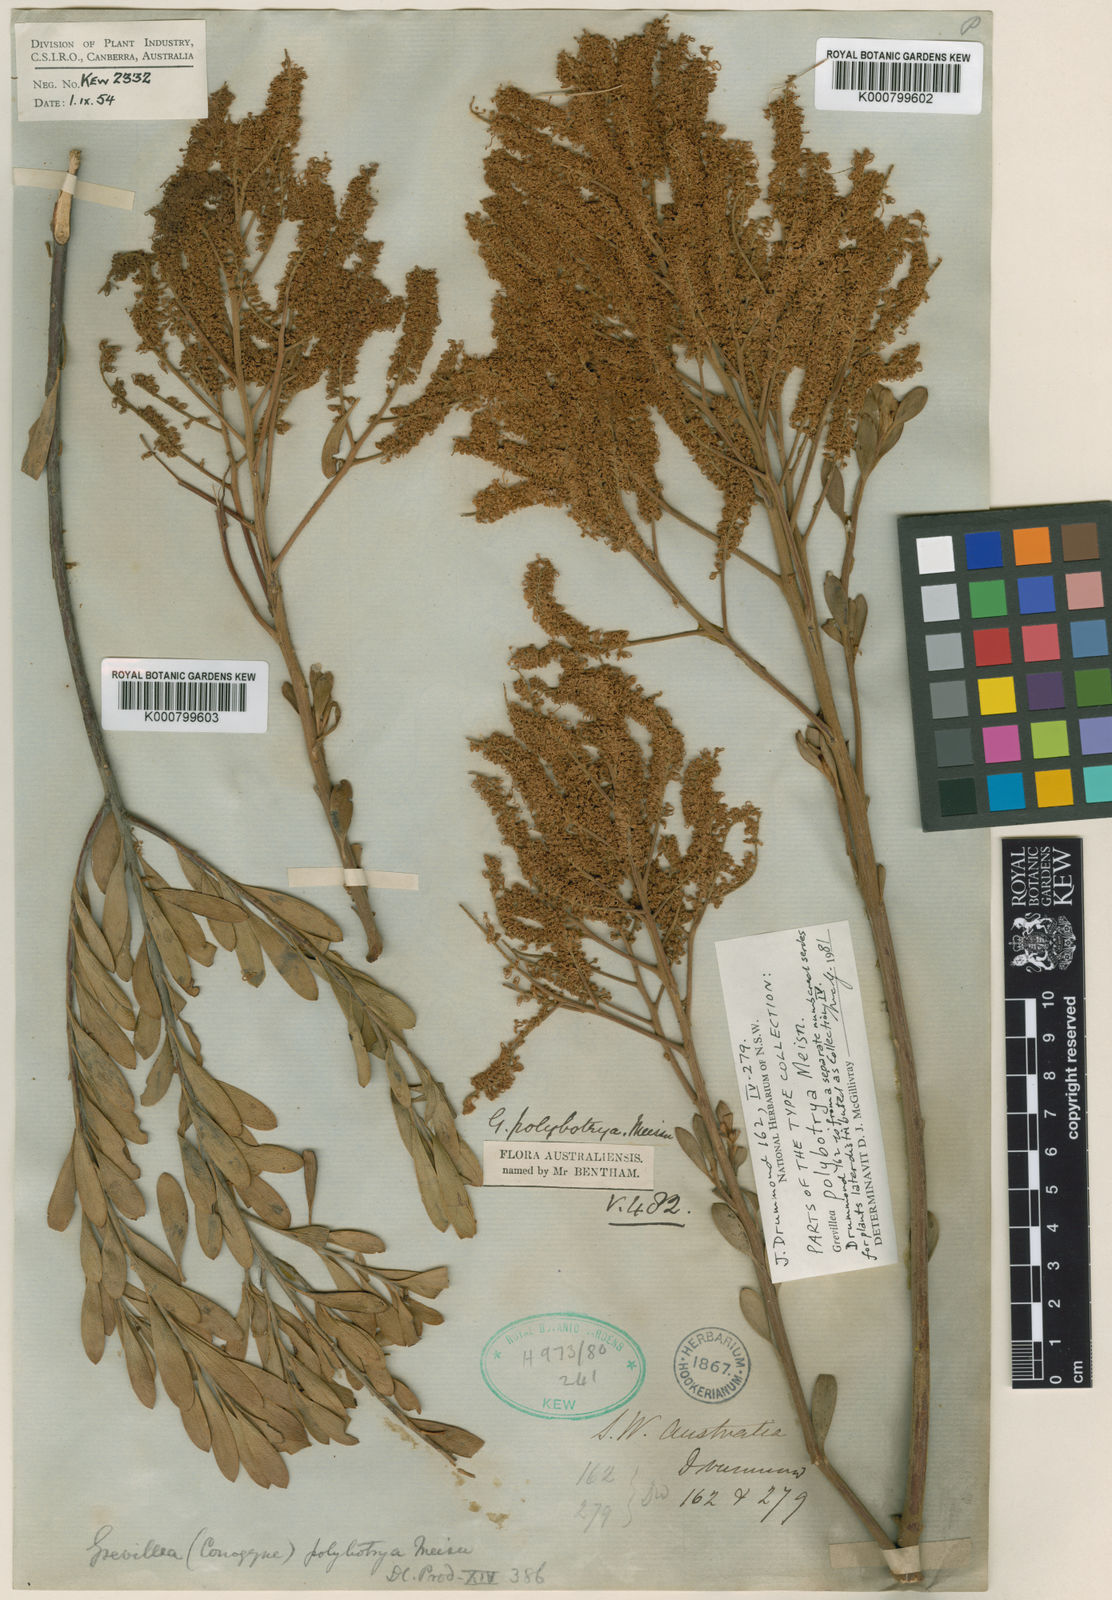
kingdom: Plantae
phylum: Tracheophyta
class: Magnoliopsida
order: Proteales
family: Proteaceae
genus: Grevillea
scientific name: Grevillea polybotrya
